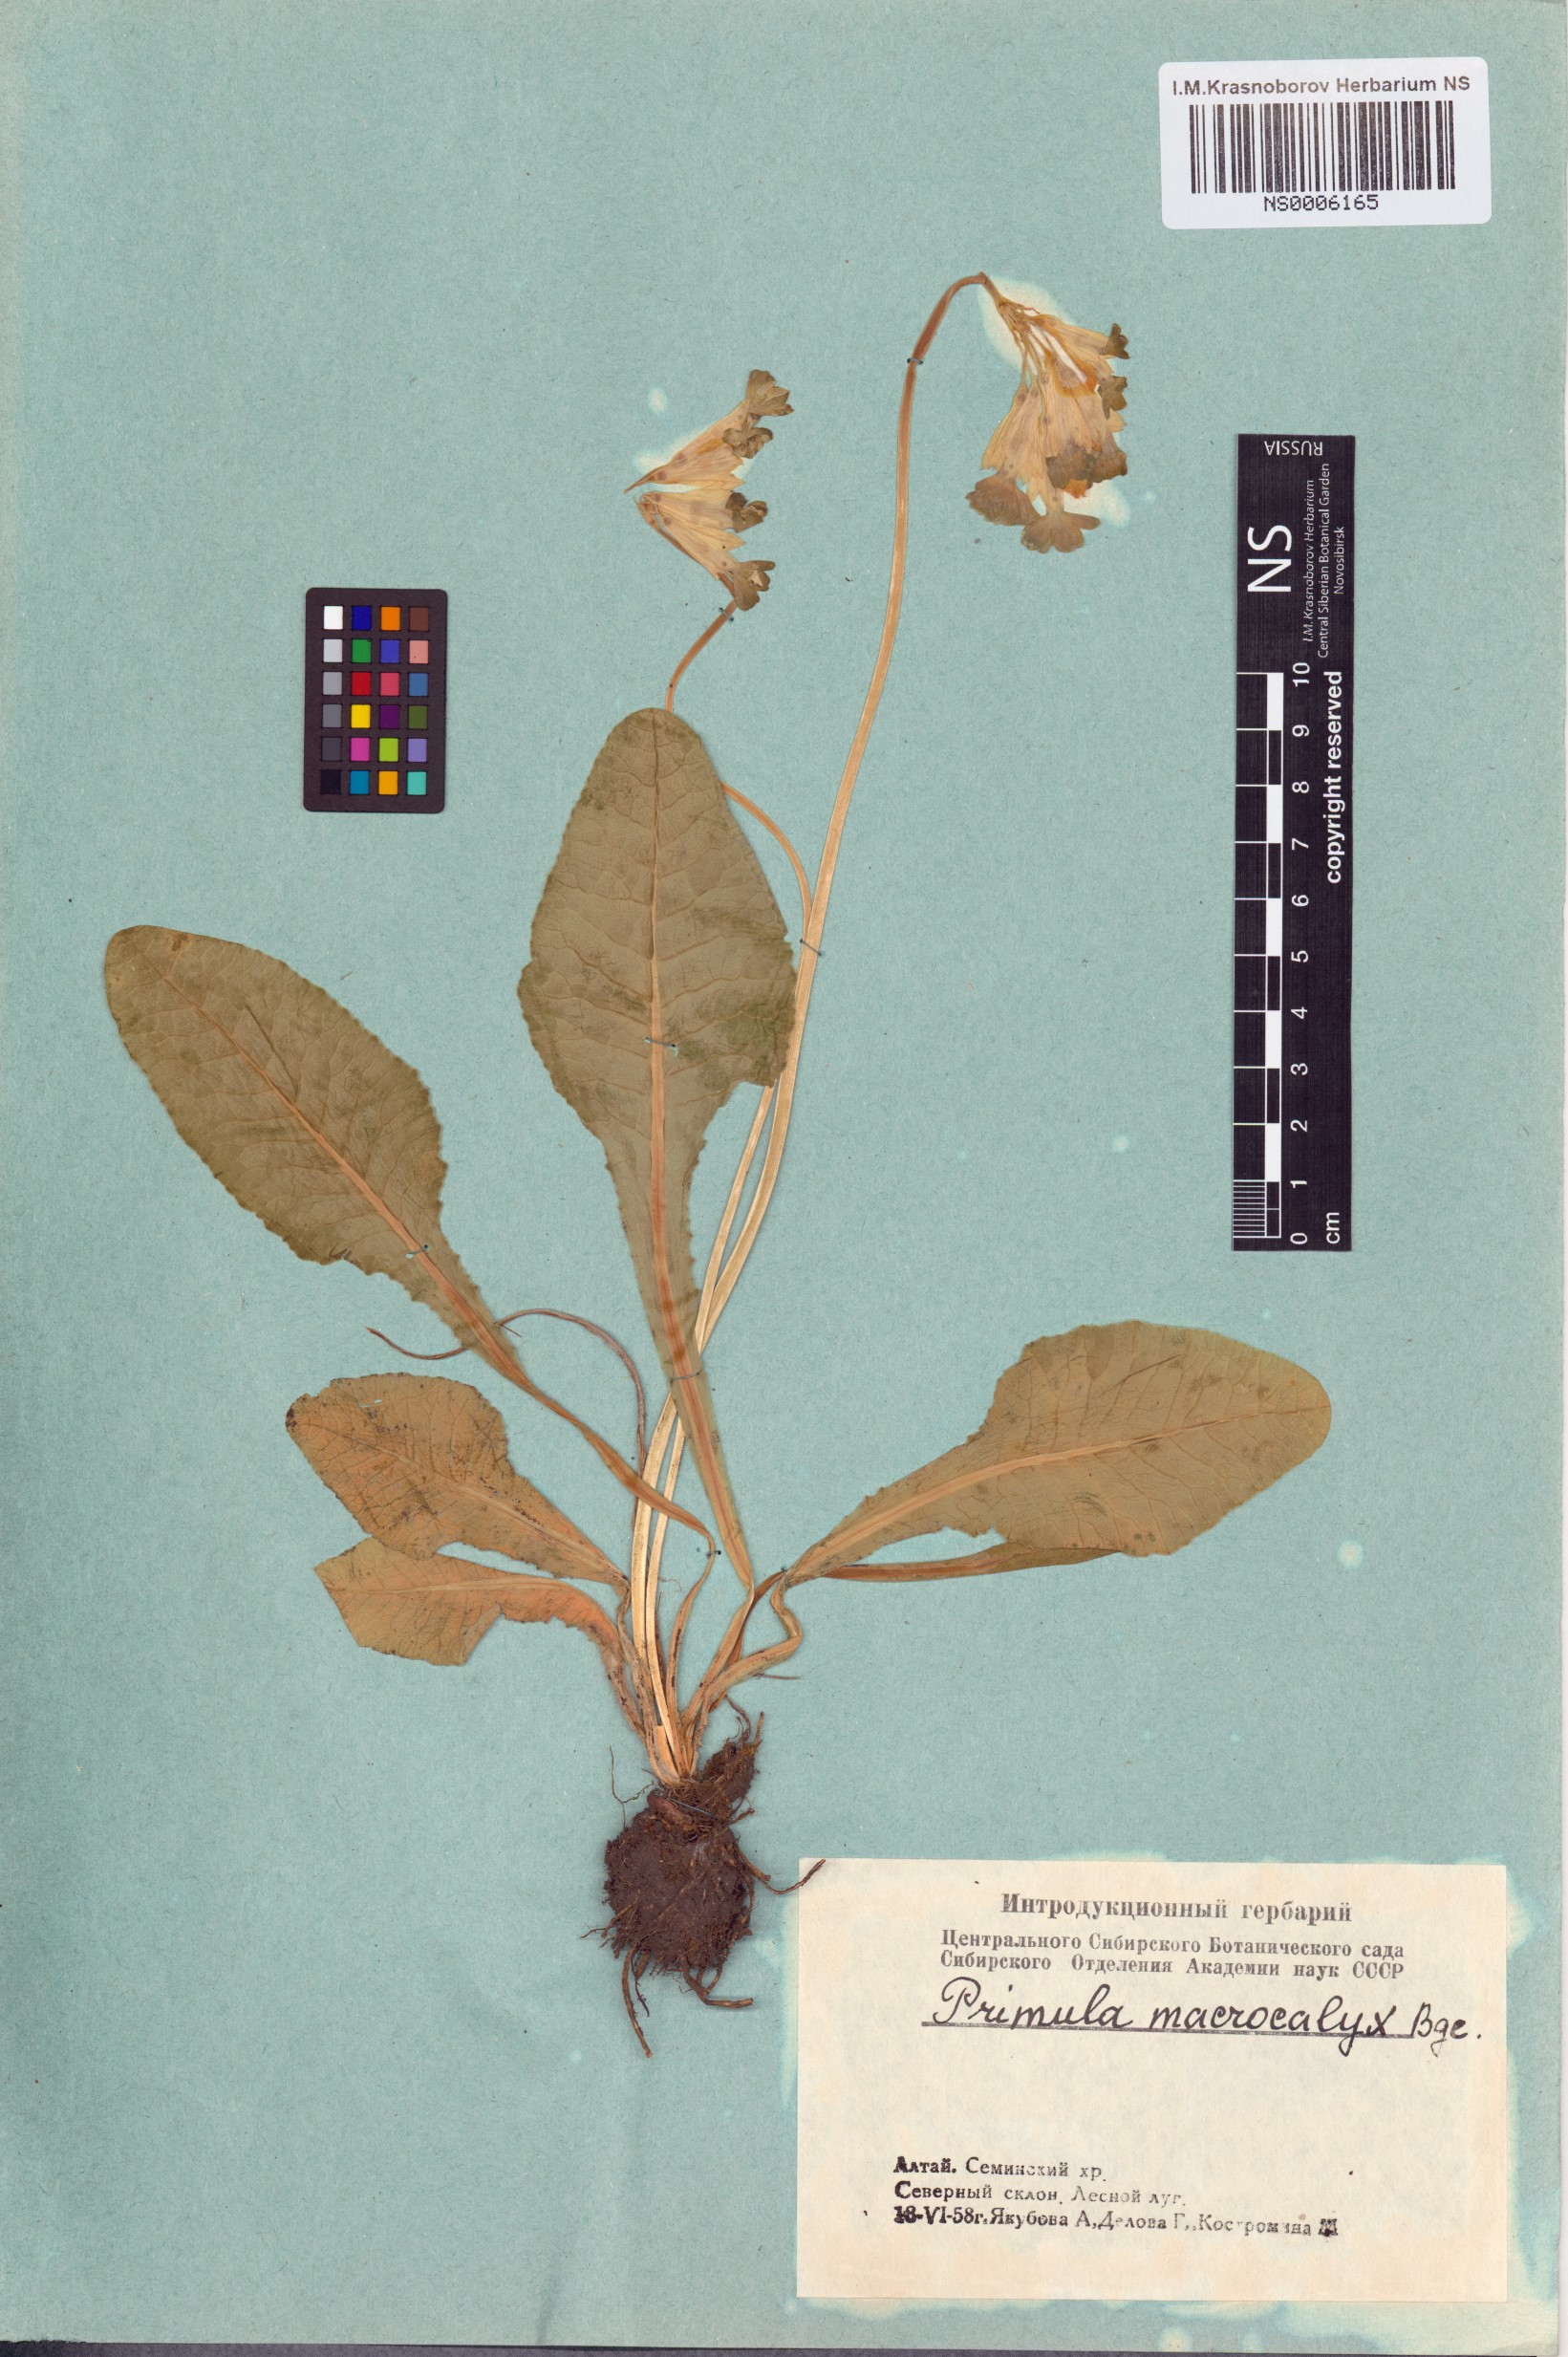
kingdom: Plantae
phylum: Tracheophyta
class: Magnoliopsida
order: Ericales
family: Primulaceae
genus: Primula
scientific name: Primula veris
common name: Cowslip
